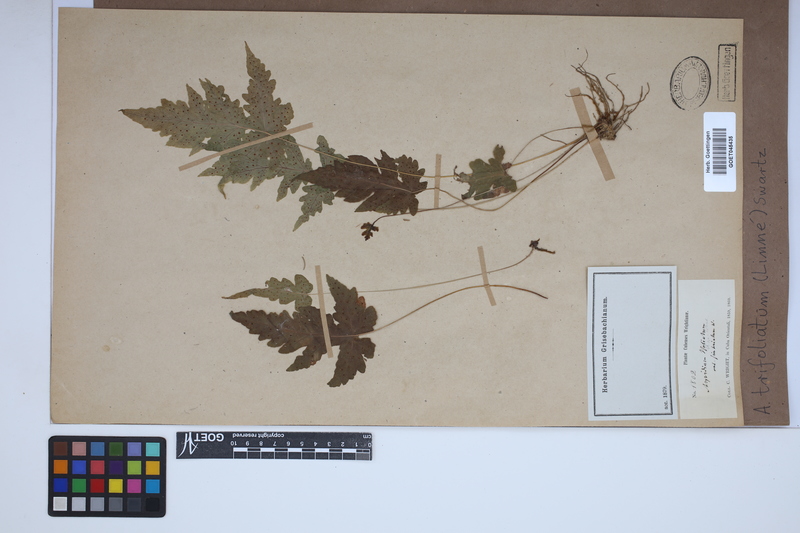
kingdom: Plantae
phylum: Tracheophyta
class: Polypodiopsida
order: Polypodiales
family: Tectariaceae
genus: Tectaria
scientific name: Tectaria trifoliata
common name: Threeleaf halberd fern
